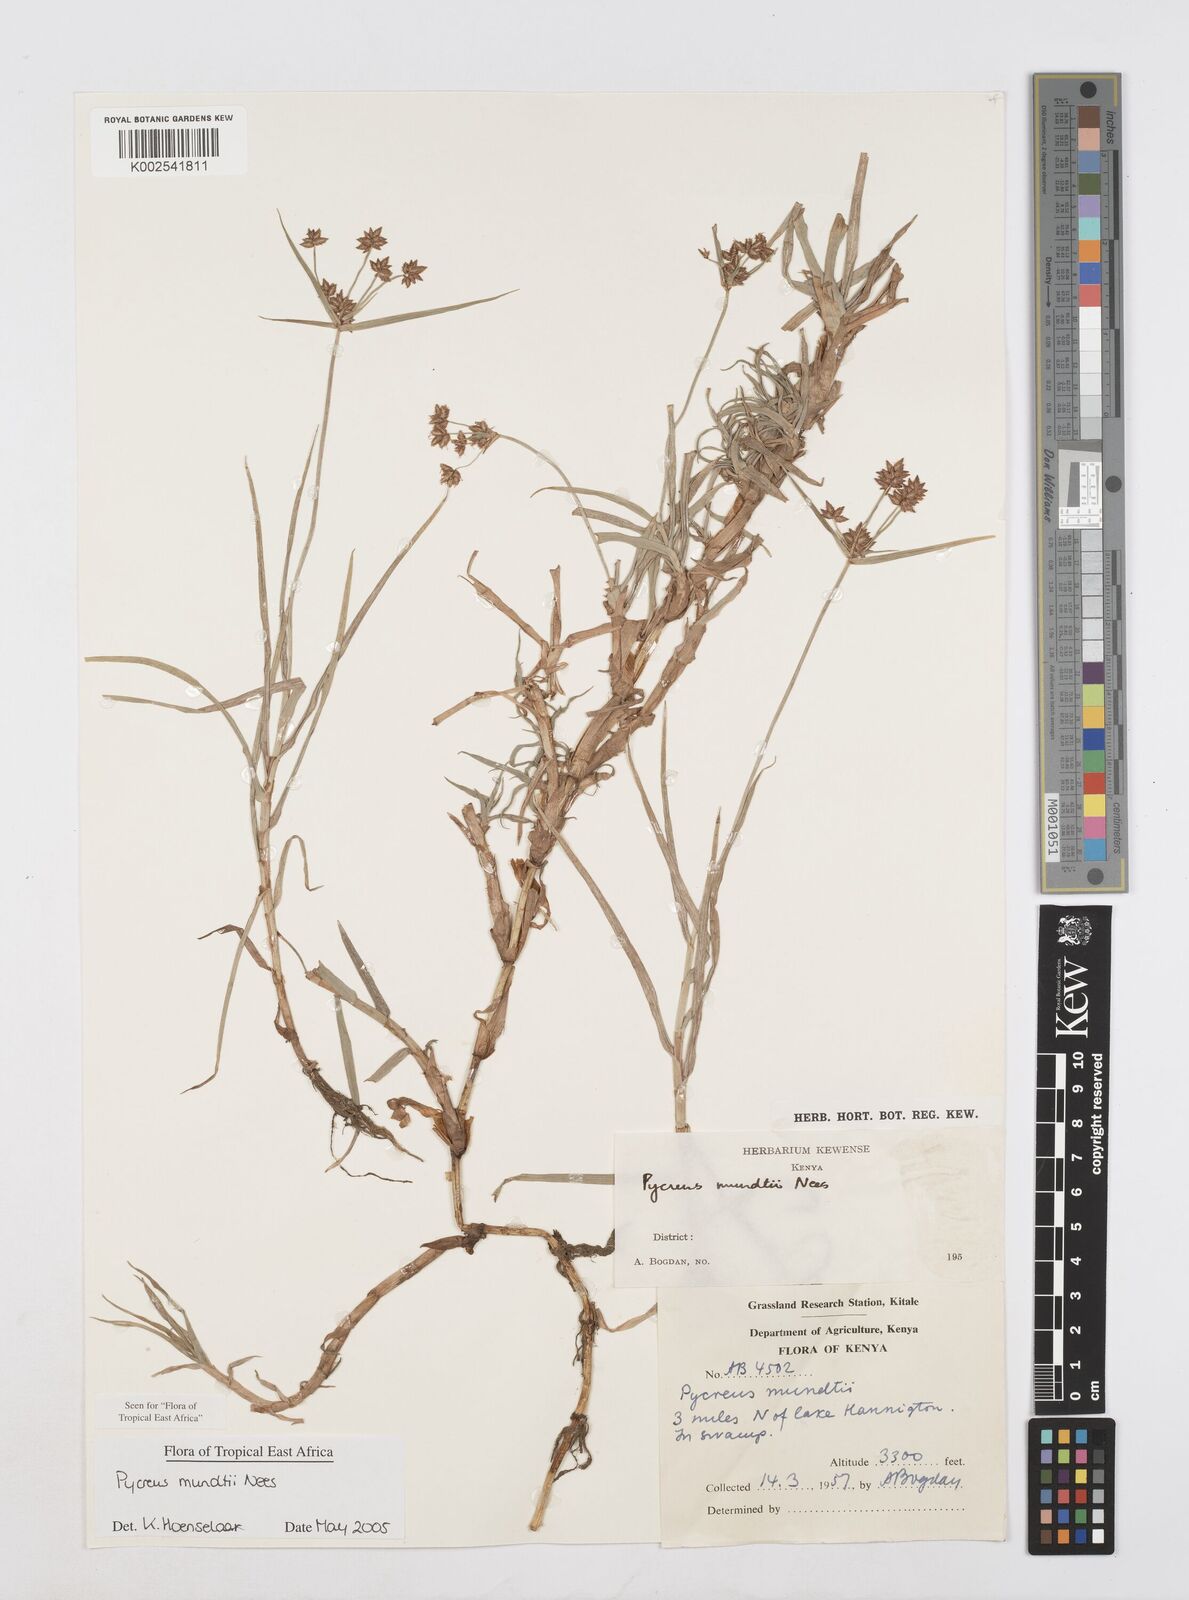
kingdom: Plantae
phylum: Tracheophyta
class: Liliopsida
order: Poales
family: Cyperaceae
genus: Cyperus
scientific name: Cyperus mundii
